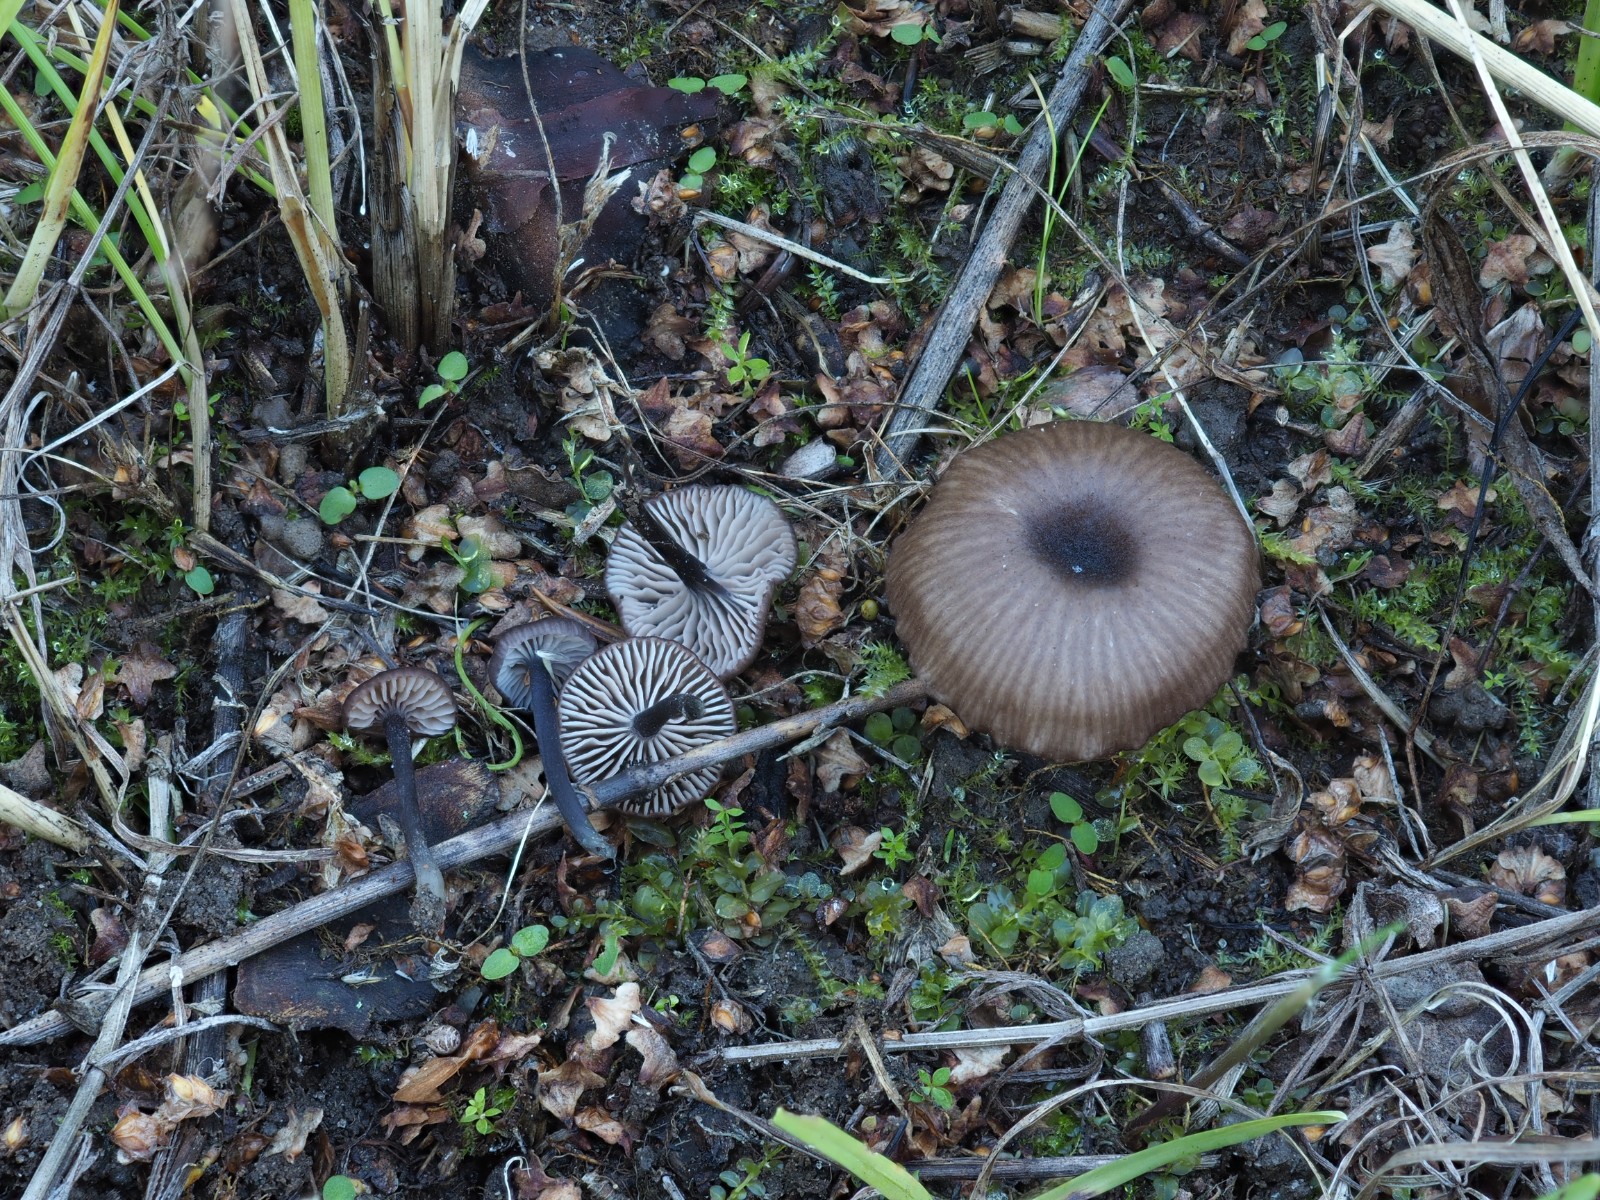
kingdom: Fungi
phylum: Basidiomycota
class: Agaricomycetes
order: Agaricales
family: Entolomataceae
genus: Entoloma
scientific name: Entoloma
